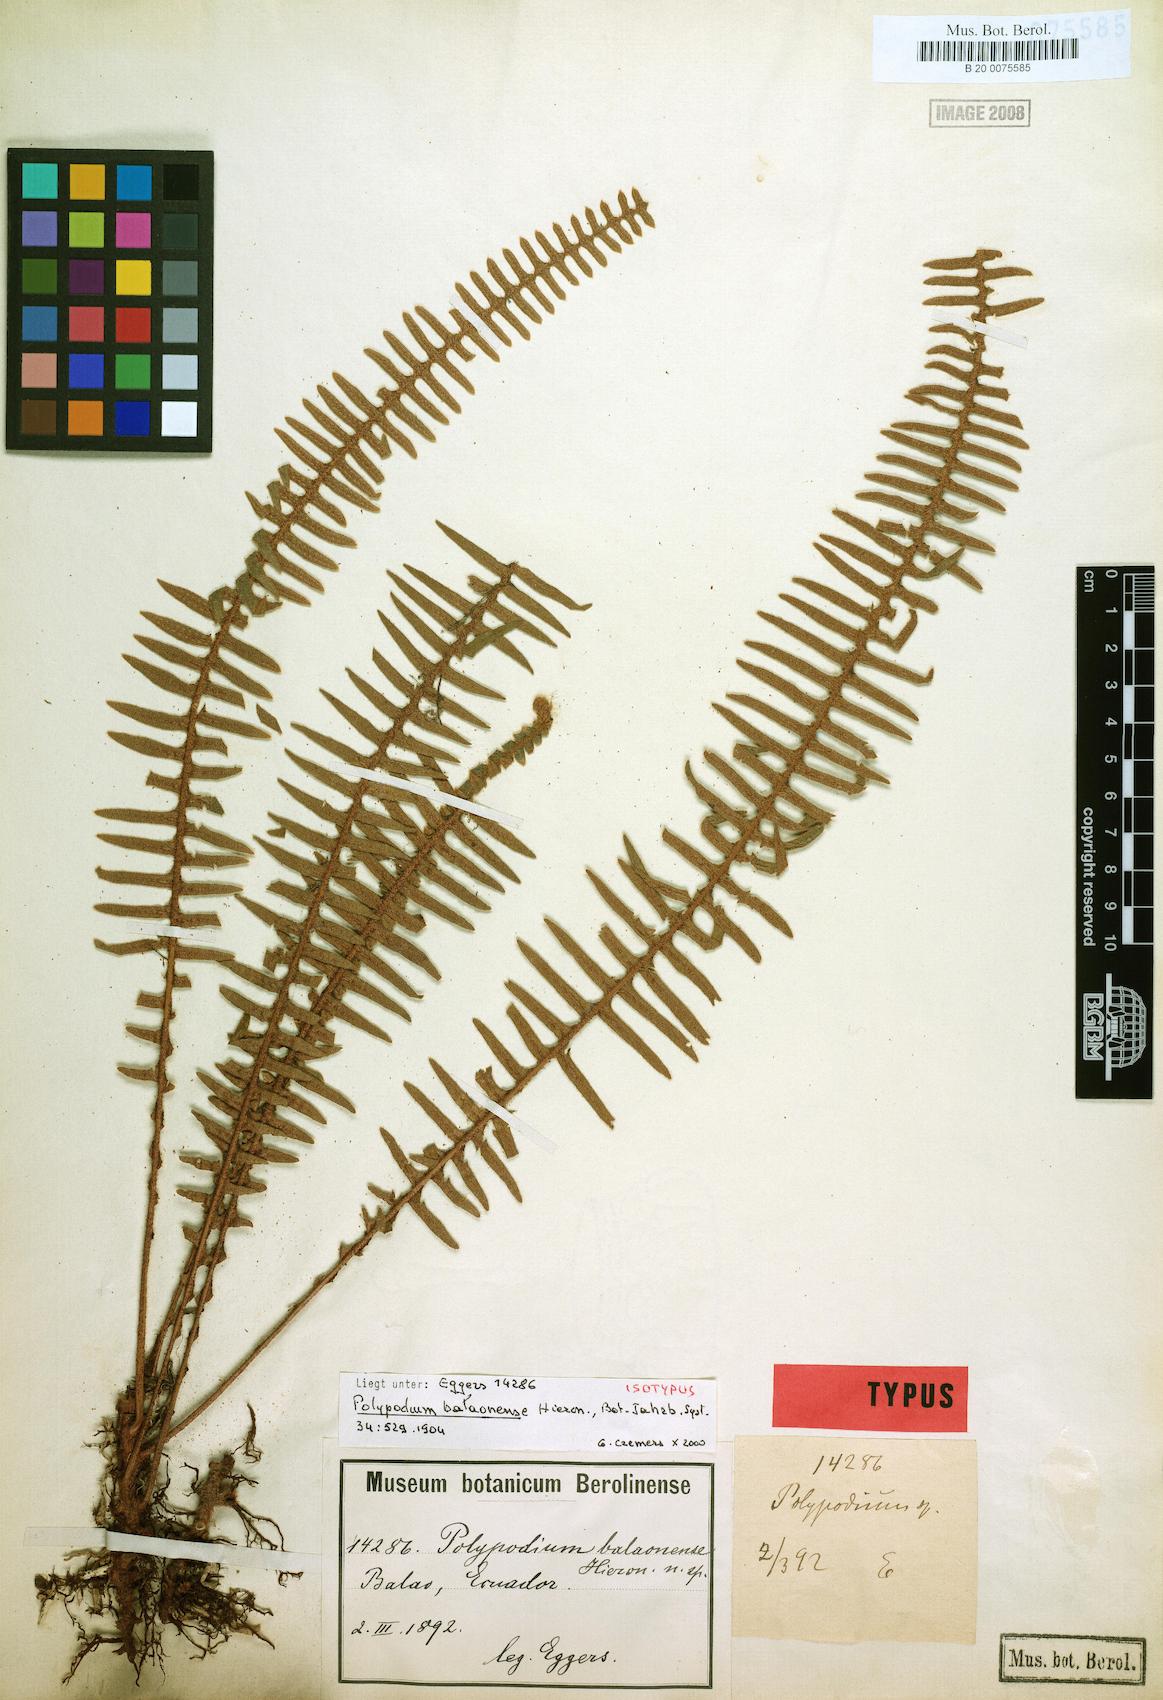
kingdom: Plantae
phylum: Tracheophyta
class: Polypodiopsida
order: Polypodiales
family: Polypodiaceae
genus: Pleopeltis
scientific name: Pleopeltis balaonensis
